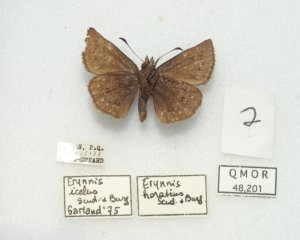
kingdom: Animalia
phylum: Arthropoda
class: Insecta
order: Lepidoptera
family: Hesperiidae
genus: Erynnis
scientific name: Erynnis icelus
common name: Dreamy Duskywing
